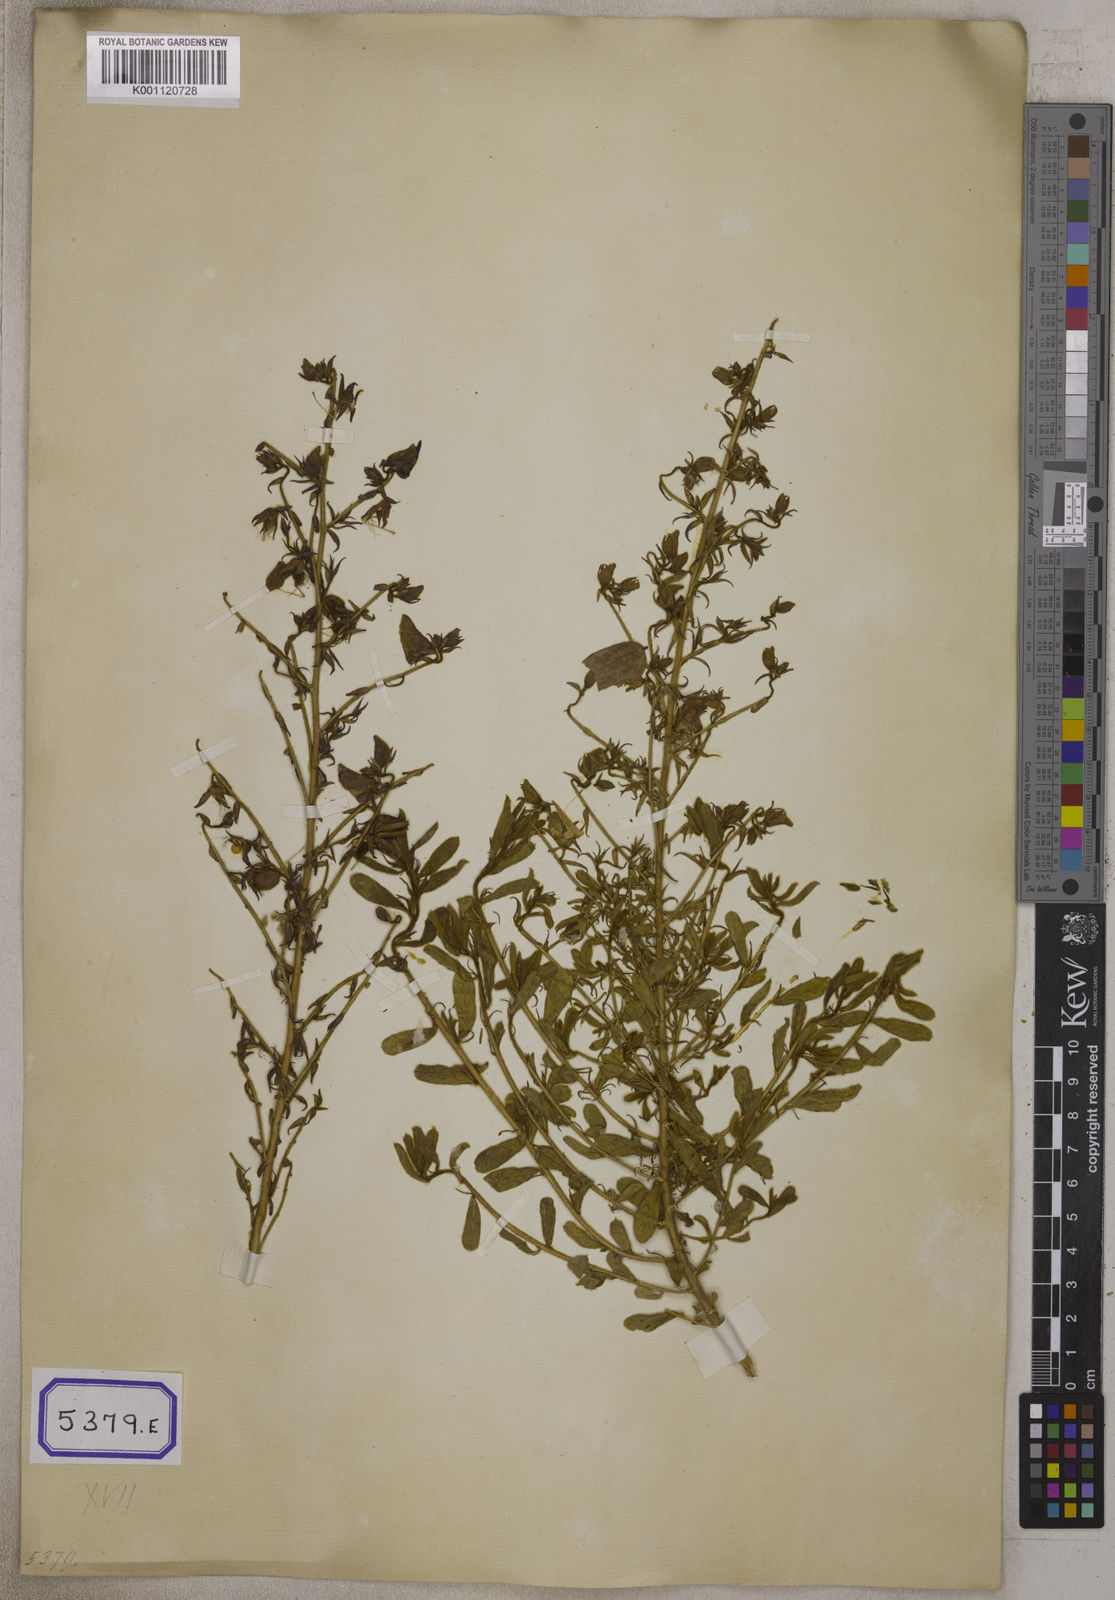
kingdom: Plantae
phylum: Tracheophyta
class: Magnoliopsida
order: Fabales
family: Fabaceae
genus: Crotalaria
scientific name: Crotalaria paniculata
